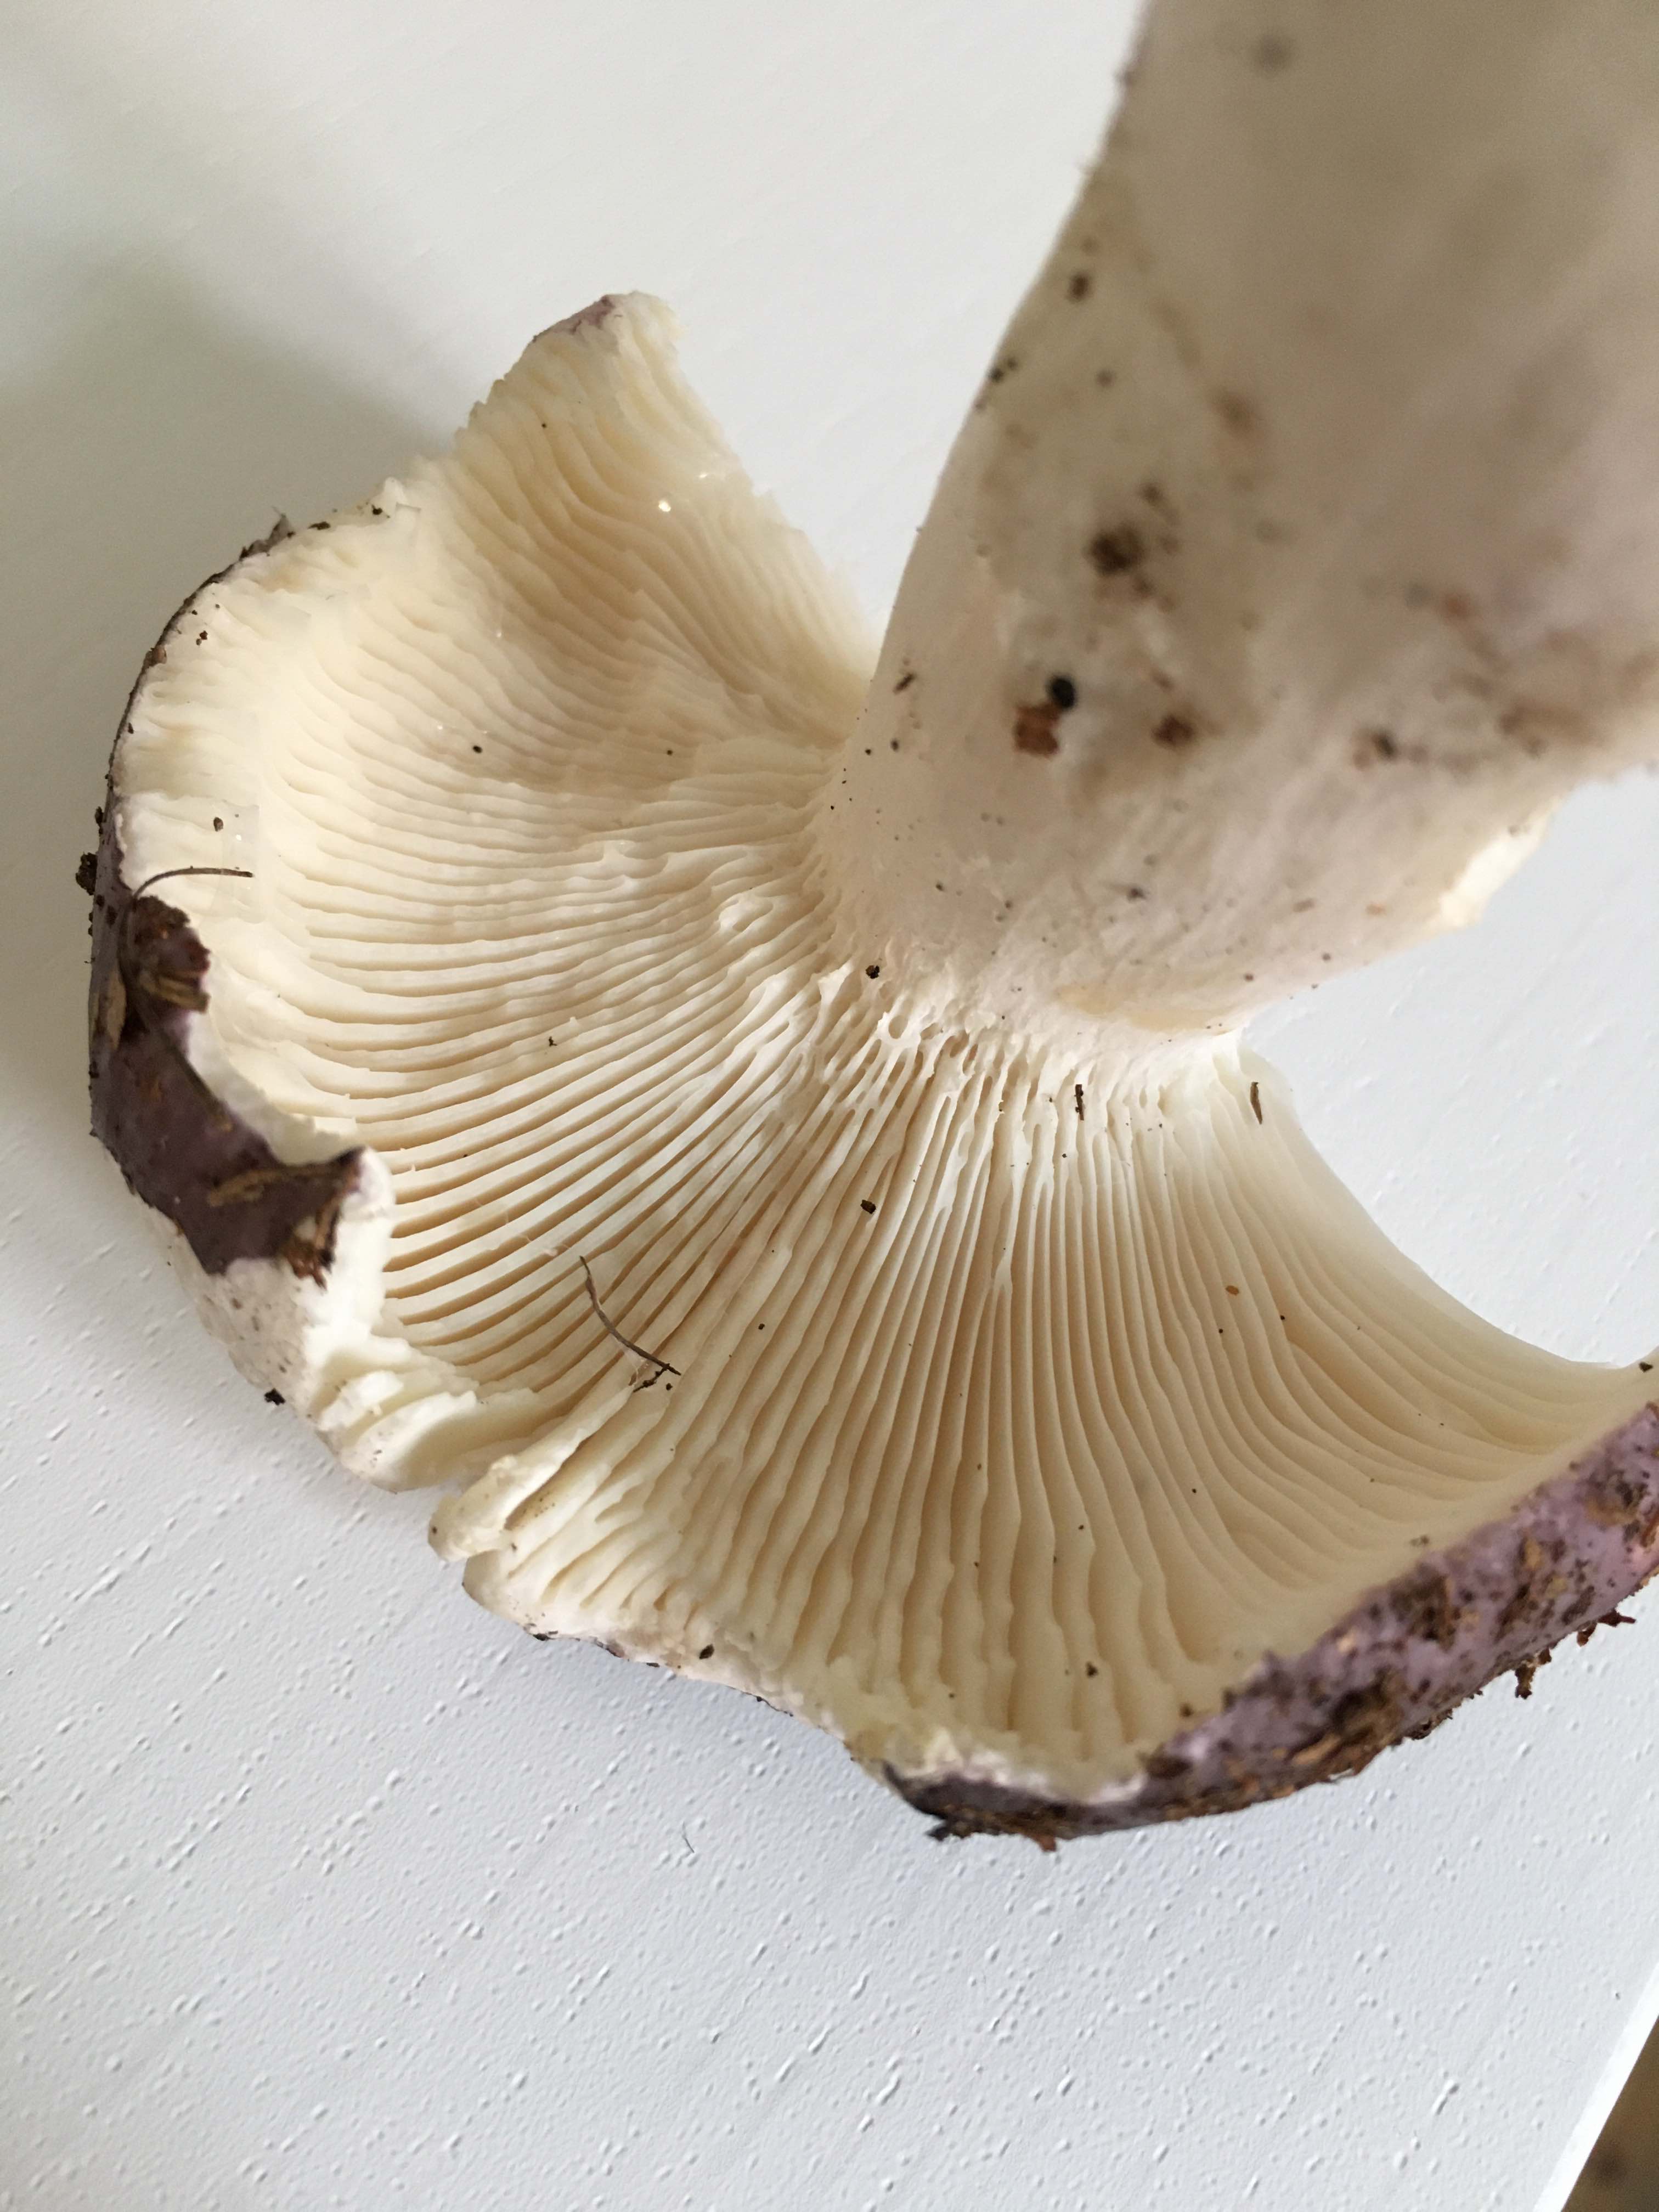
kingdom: Fungi
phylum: Basidiomycota
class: Agaricomycetes
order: Russulales
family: Russulaceae
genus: Russula
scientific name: Russula cyanoxantha
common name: broget skørhat
